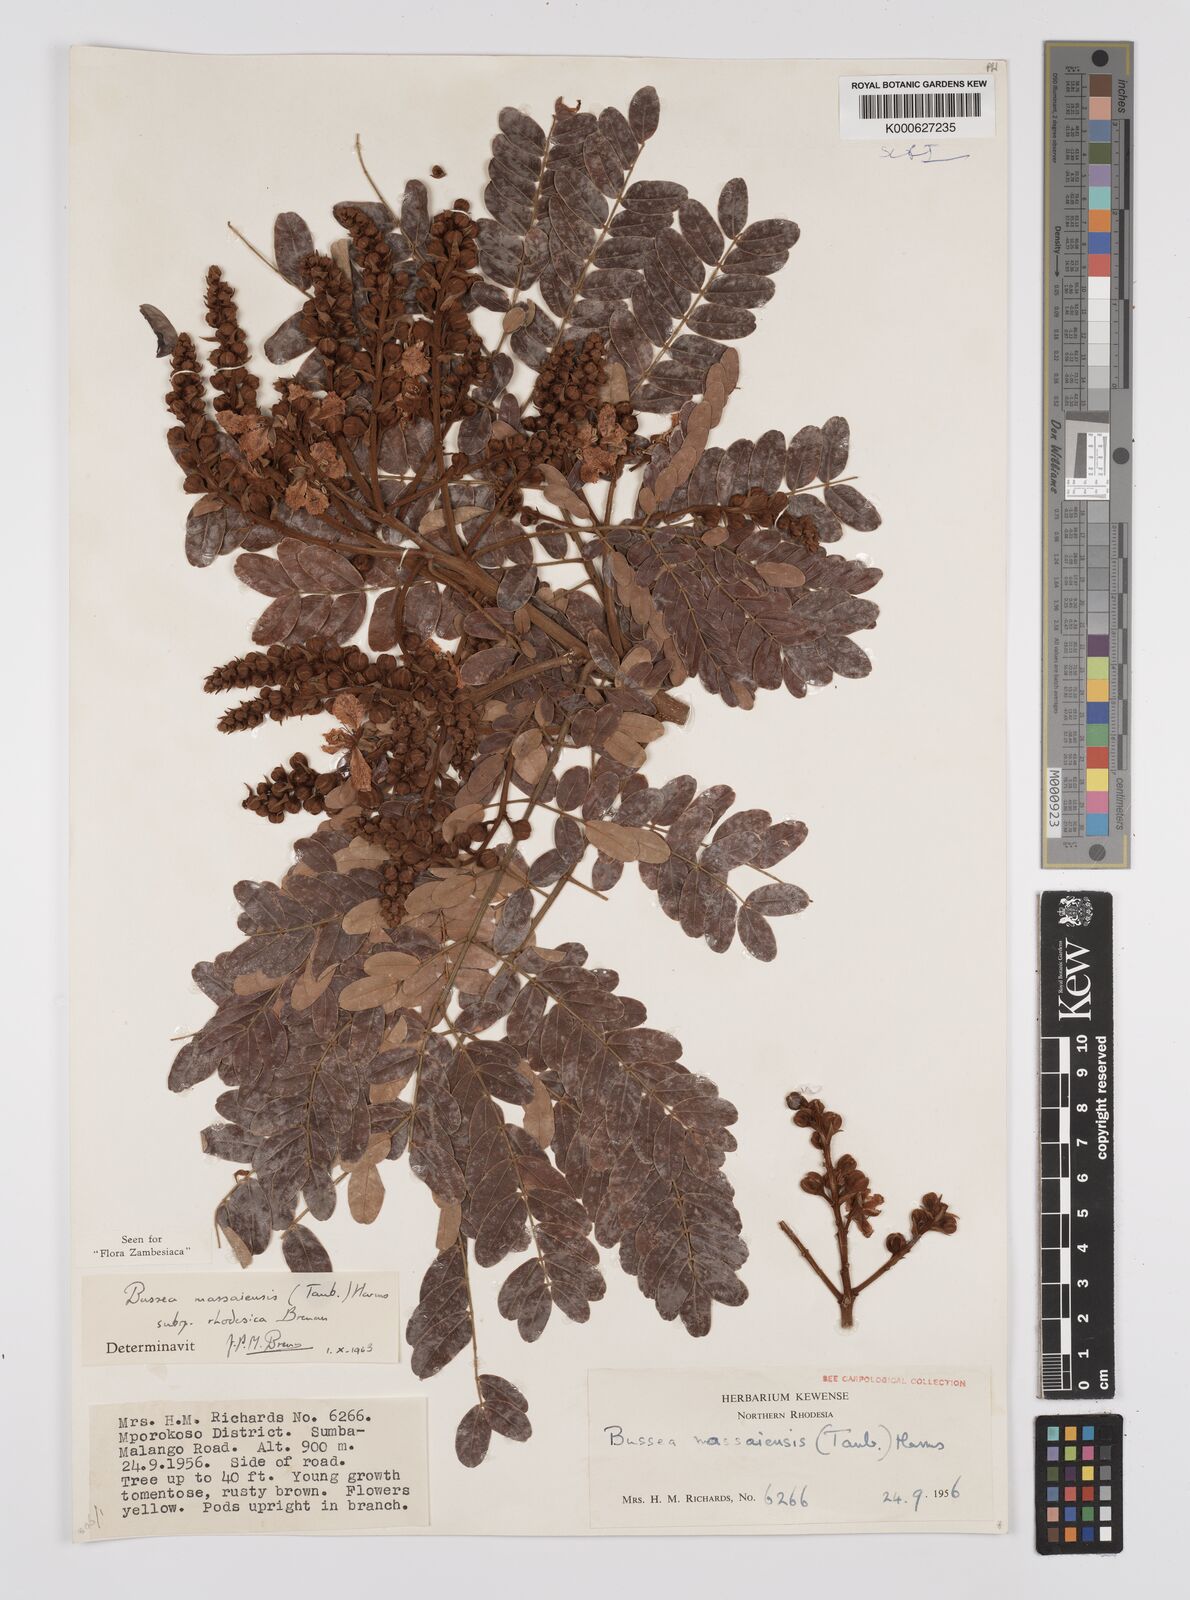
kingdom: Plantae
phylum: Tracheophyta
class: Magnoliopsida
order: Fabales
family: Fabaceae
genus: Bussea
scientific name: Bussea
